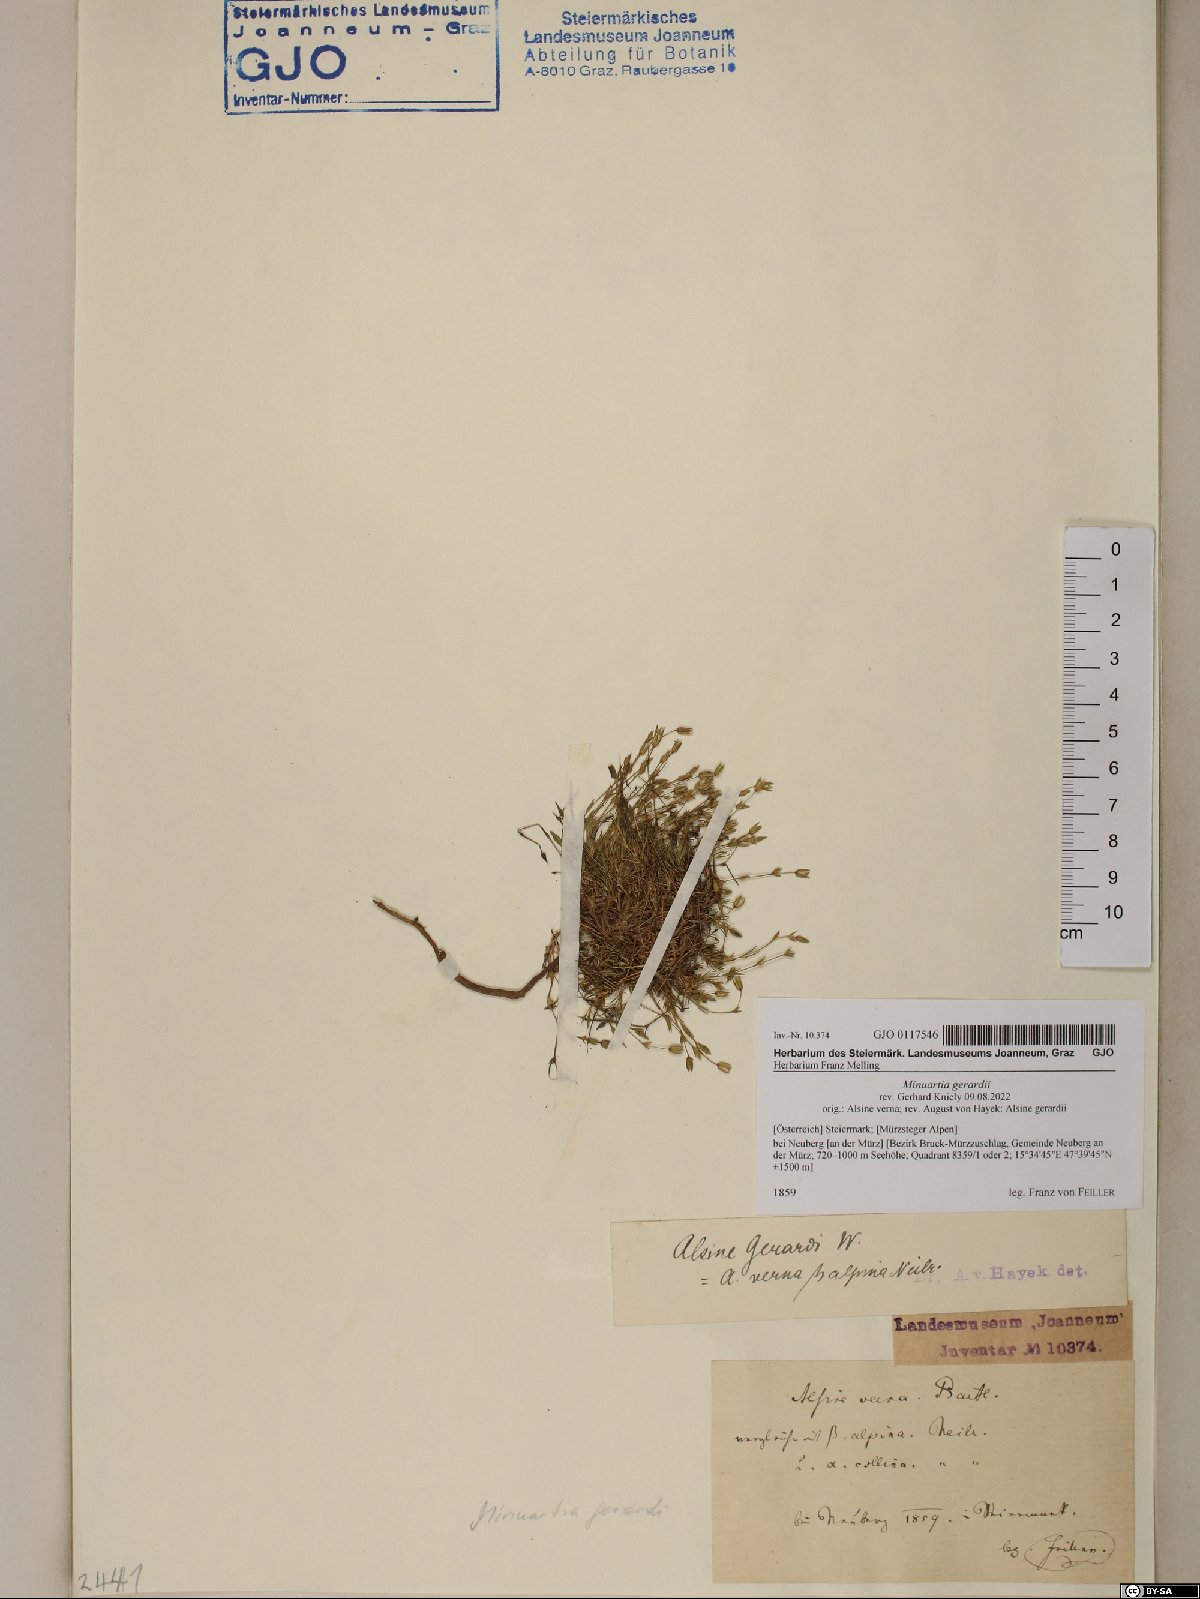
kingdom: Plantae
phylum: Tracheophyta
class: Magnoliopsida
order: Caryophyllales
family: Caryophyllaceae
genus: Sabulina
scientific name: Sabulina verna
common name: Spring sandwort
